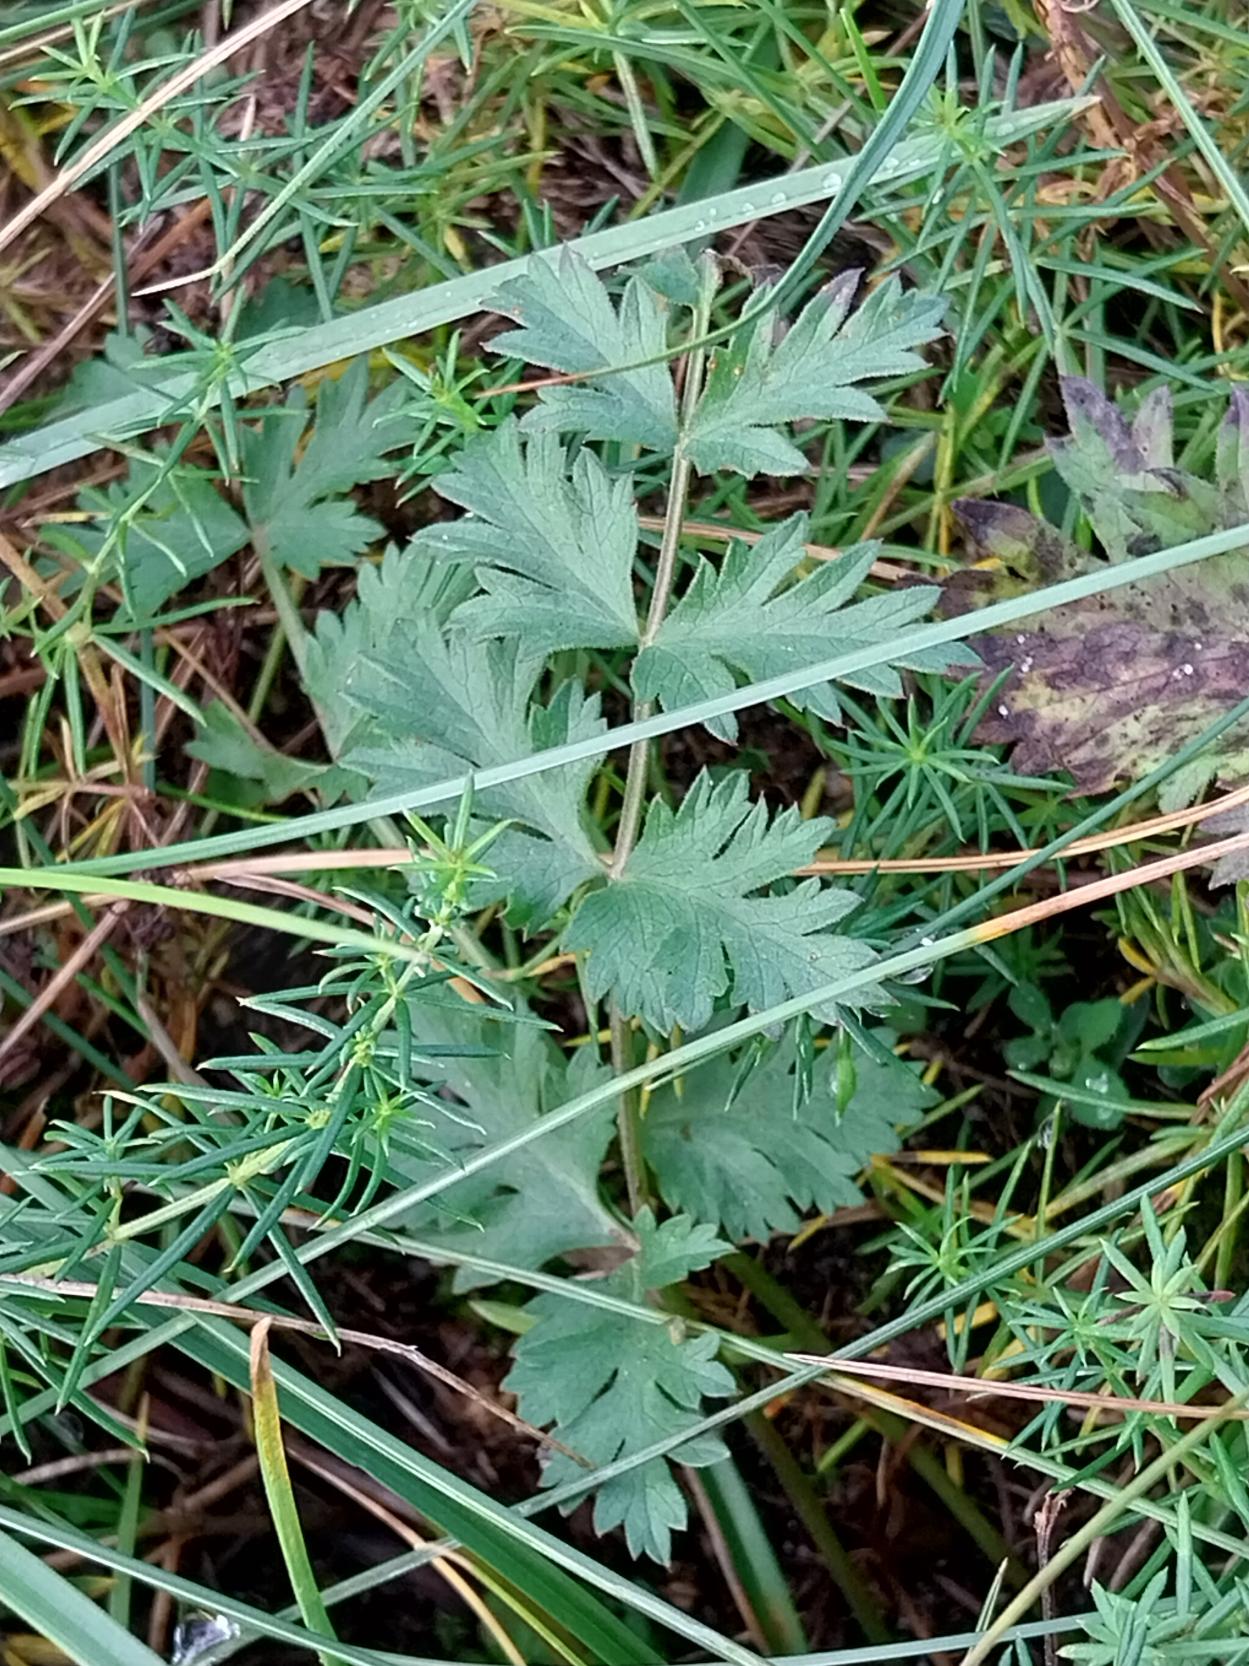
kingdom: Plantae
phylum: Tracheophyta
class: Magnoliopsida
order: Apiales
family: Apiaceae
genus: Pimpinella
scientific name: Pimpinella saxifraga
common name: Almindelig pimpinelle
